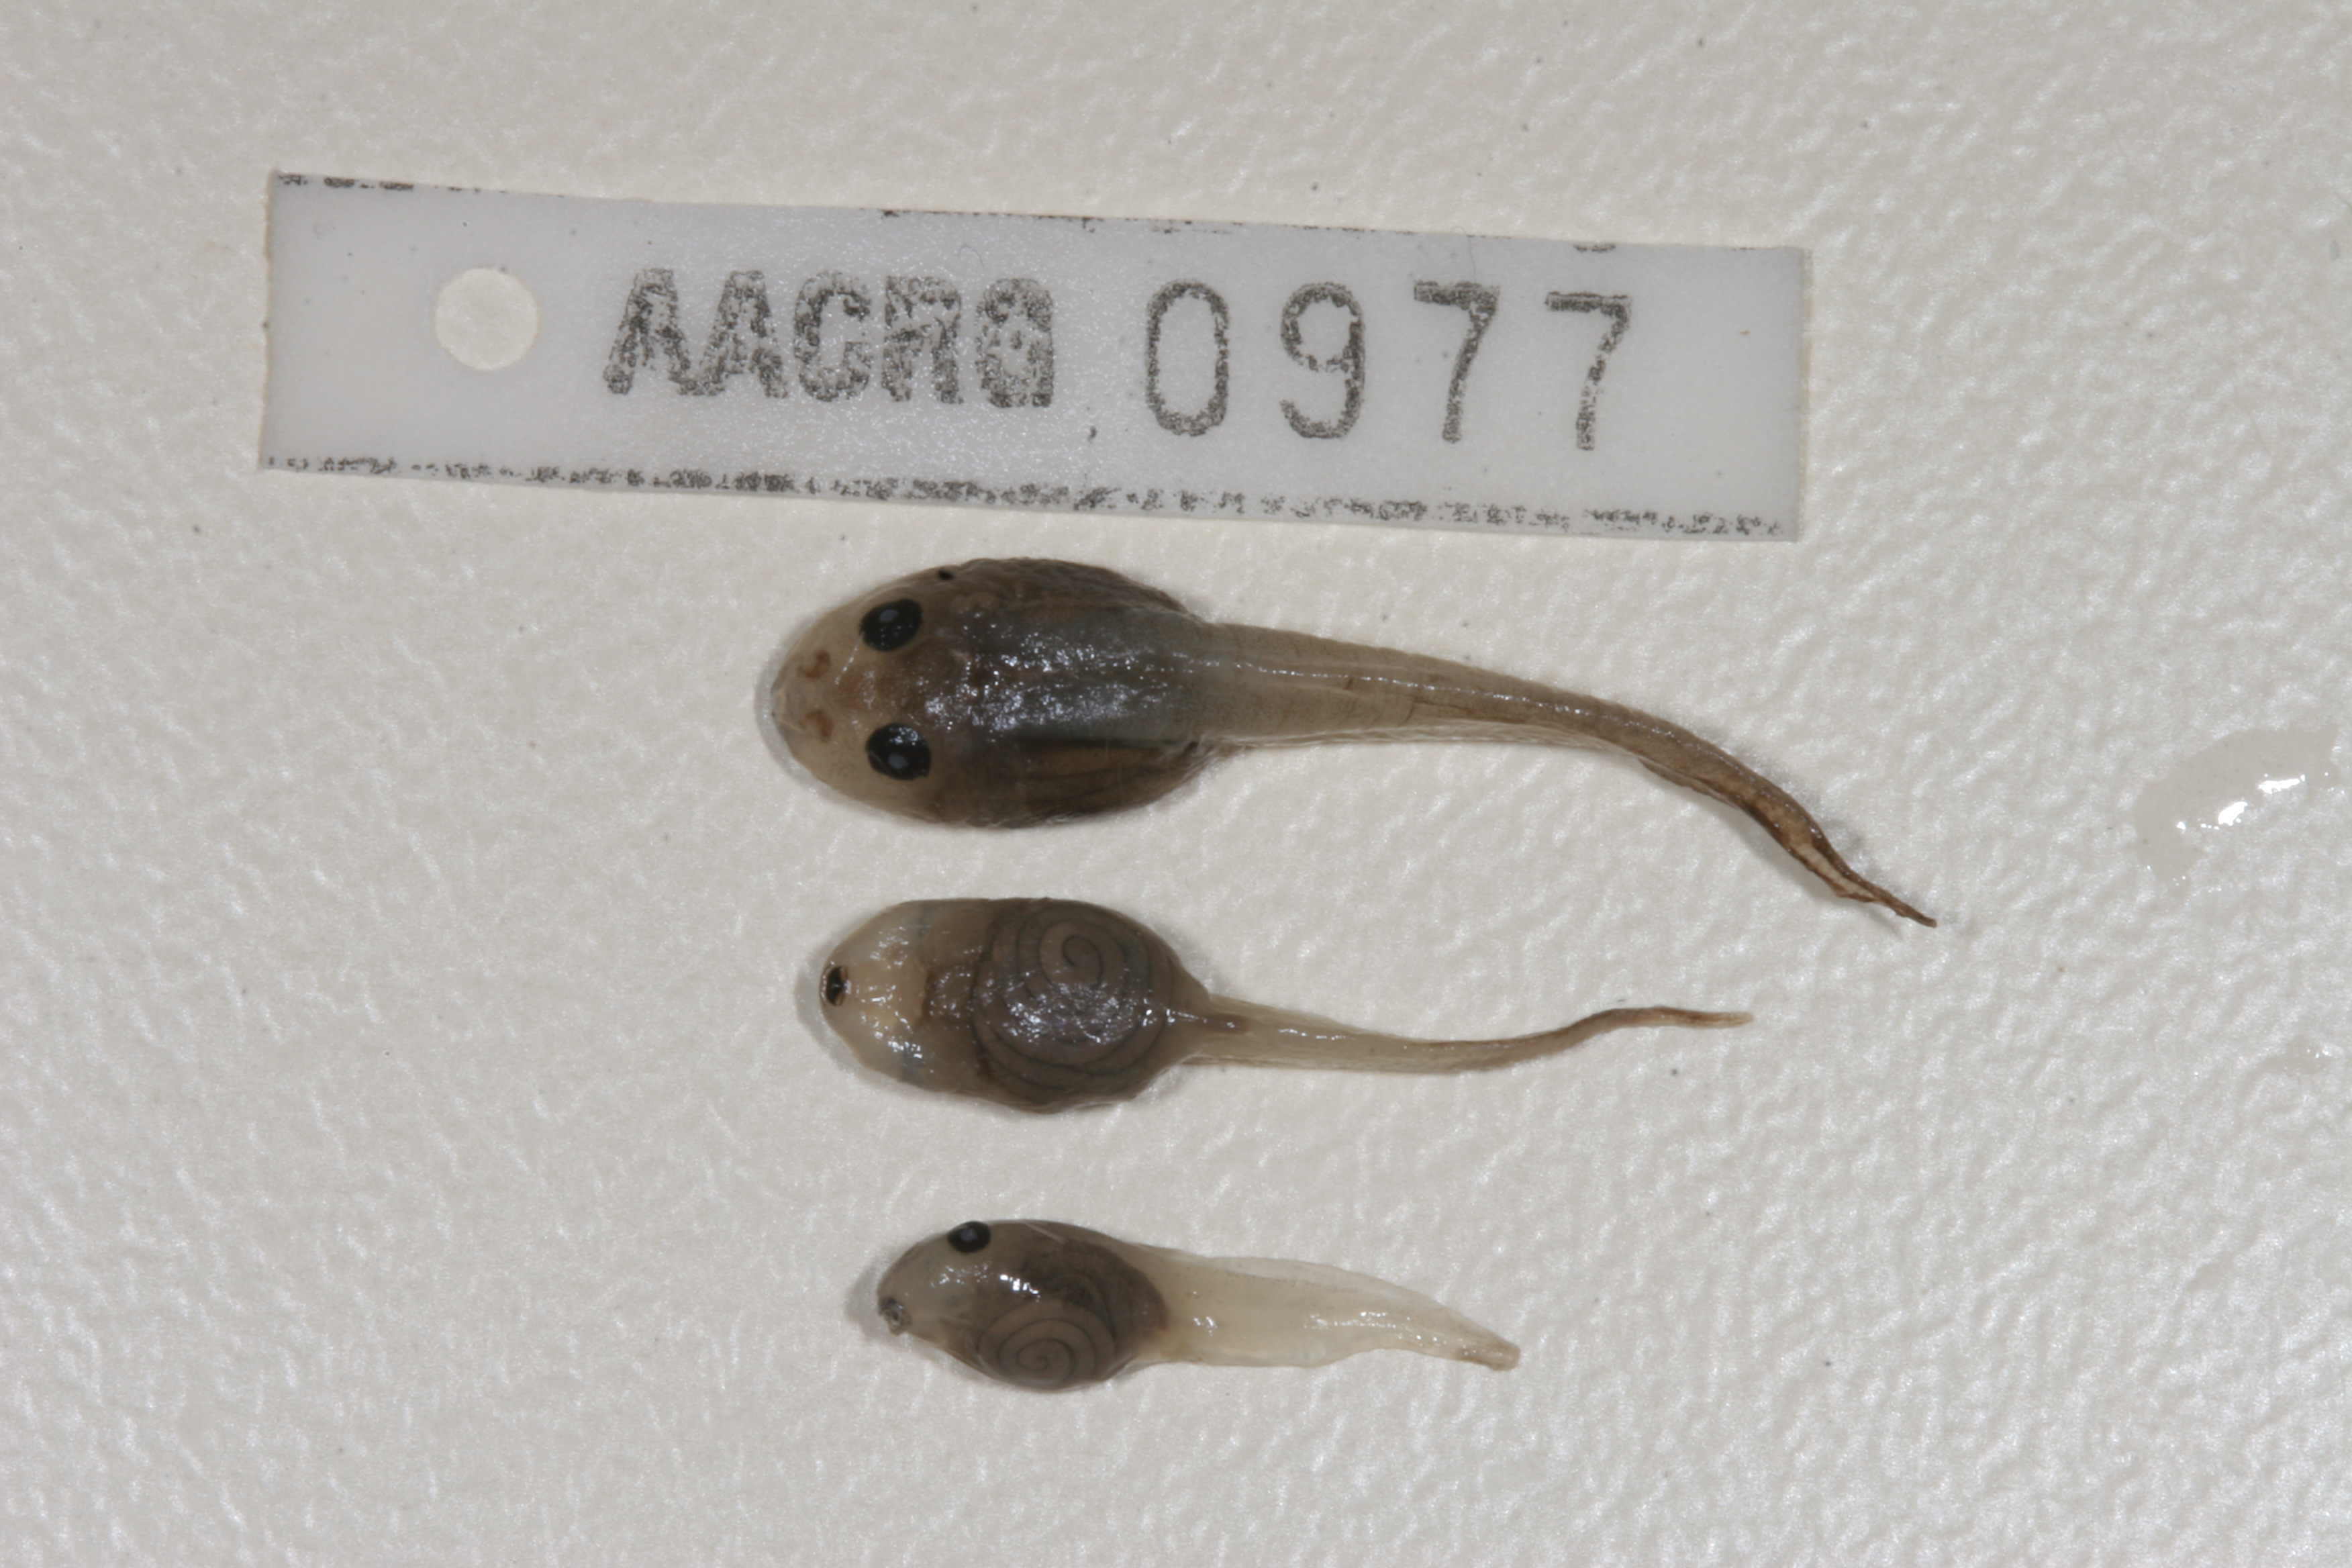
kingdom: Animalia
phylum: Chordata
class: Amphibia
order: Anura
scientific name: Anura
